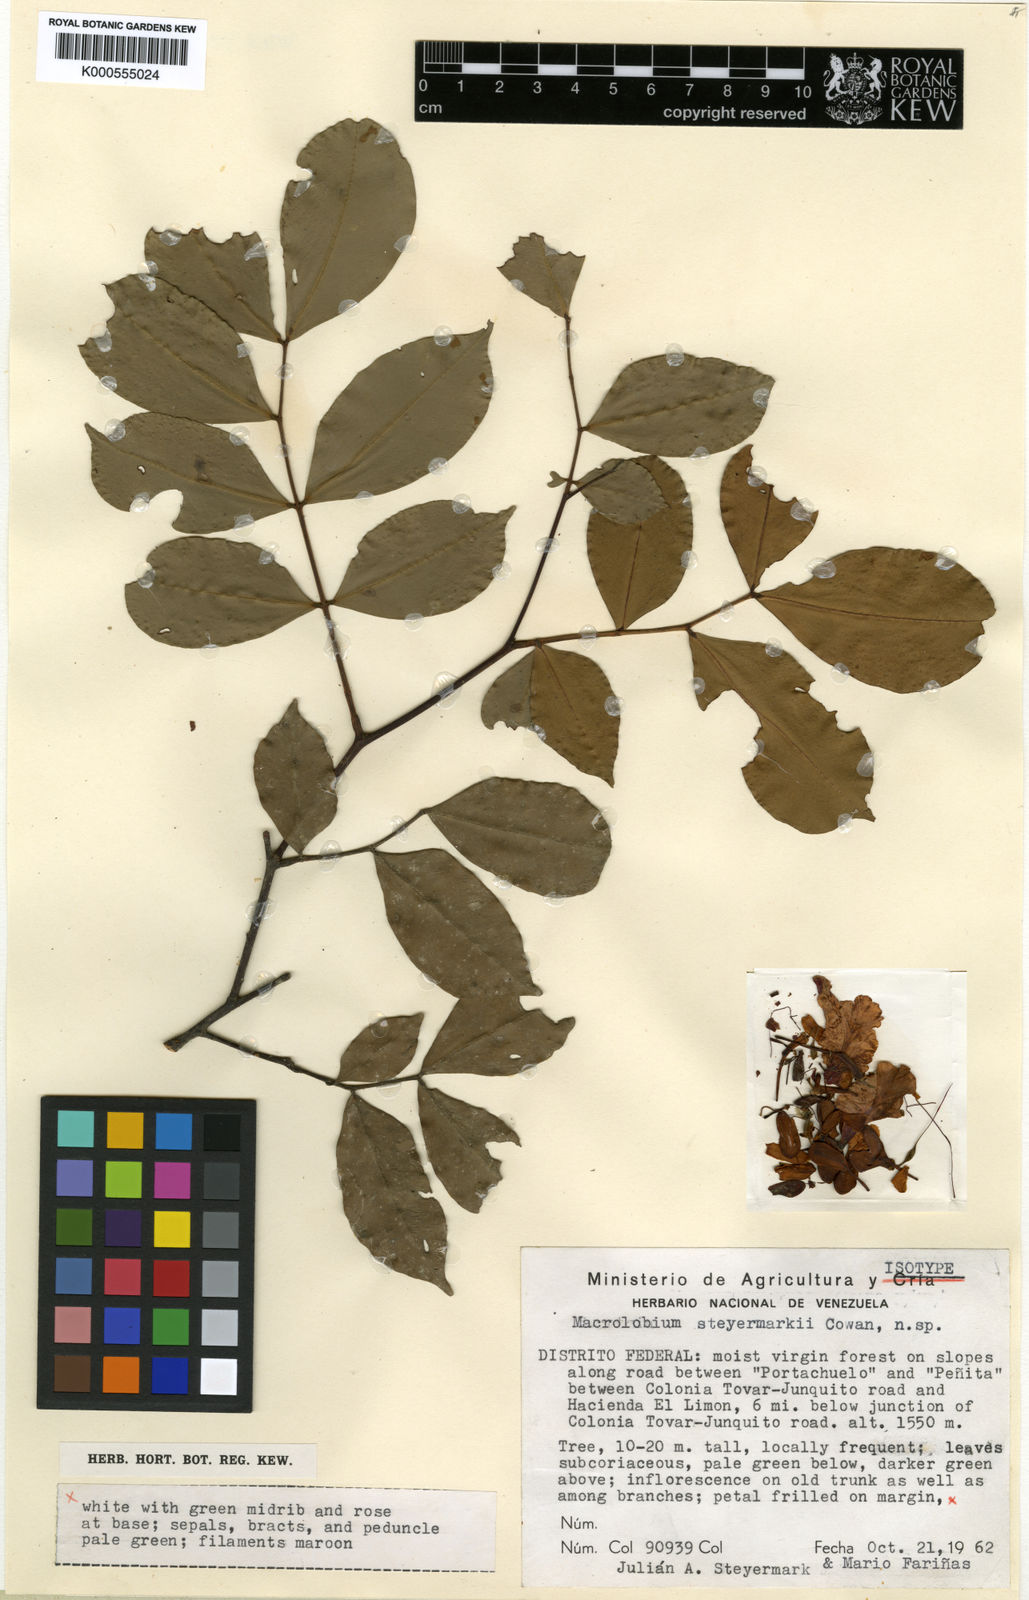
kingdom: Plantae
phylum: Tracheophyta
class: Magnoliopsida
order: Fabales
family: Fabaceae
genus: Macrolobium
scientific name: Macrolobium steyermarkii
